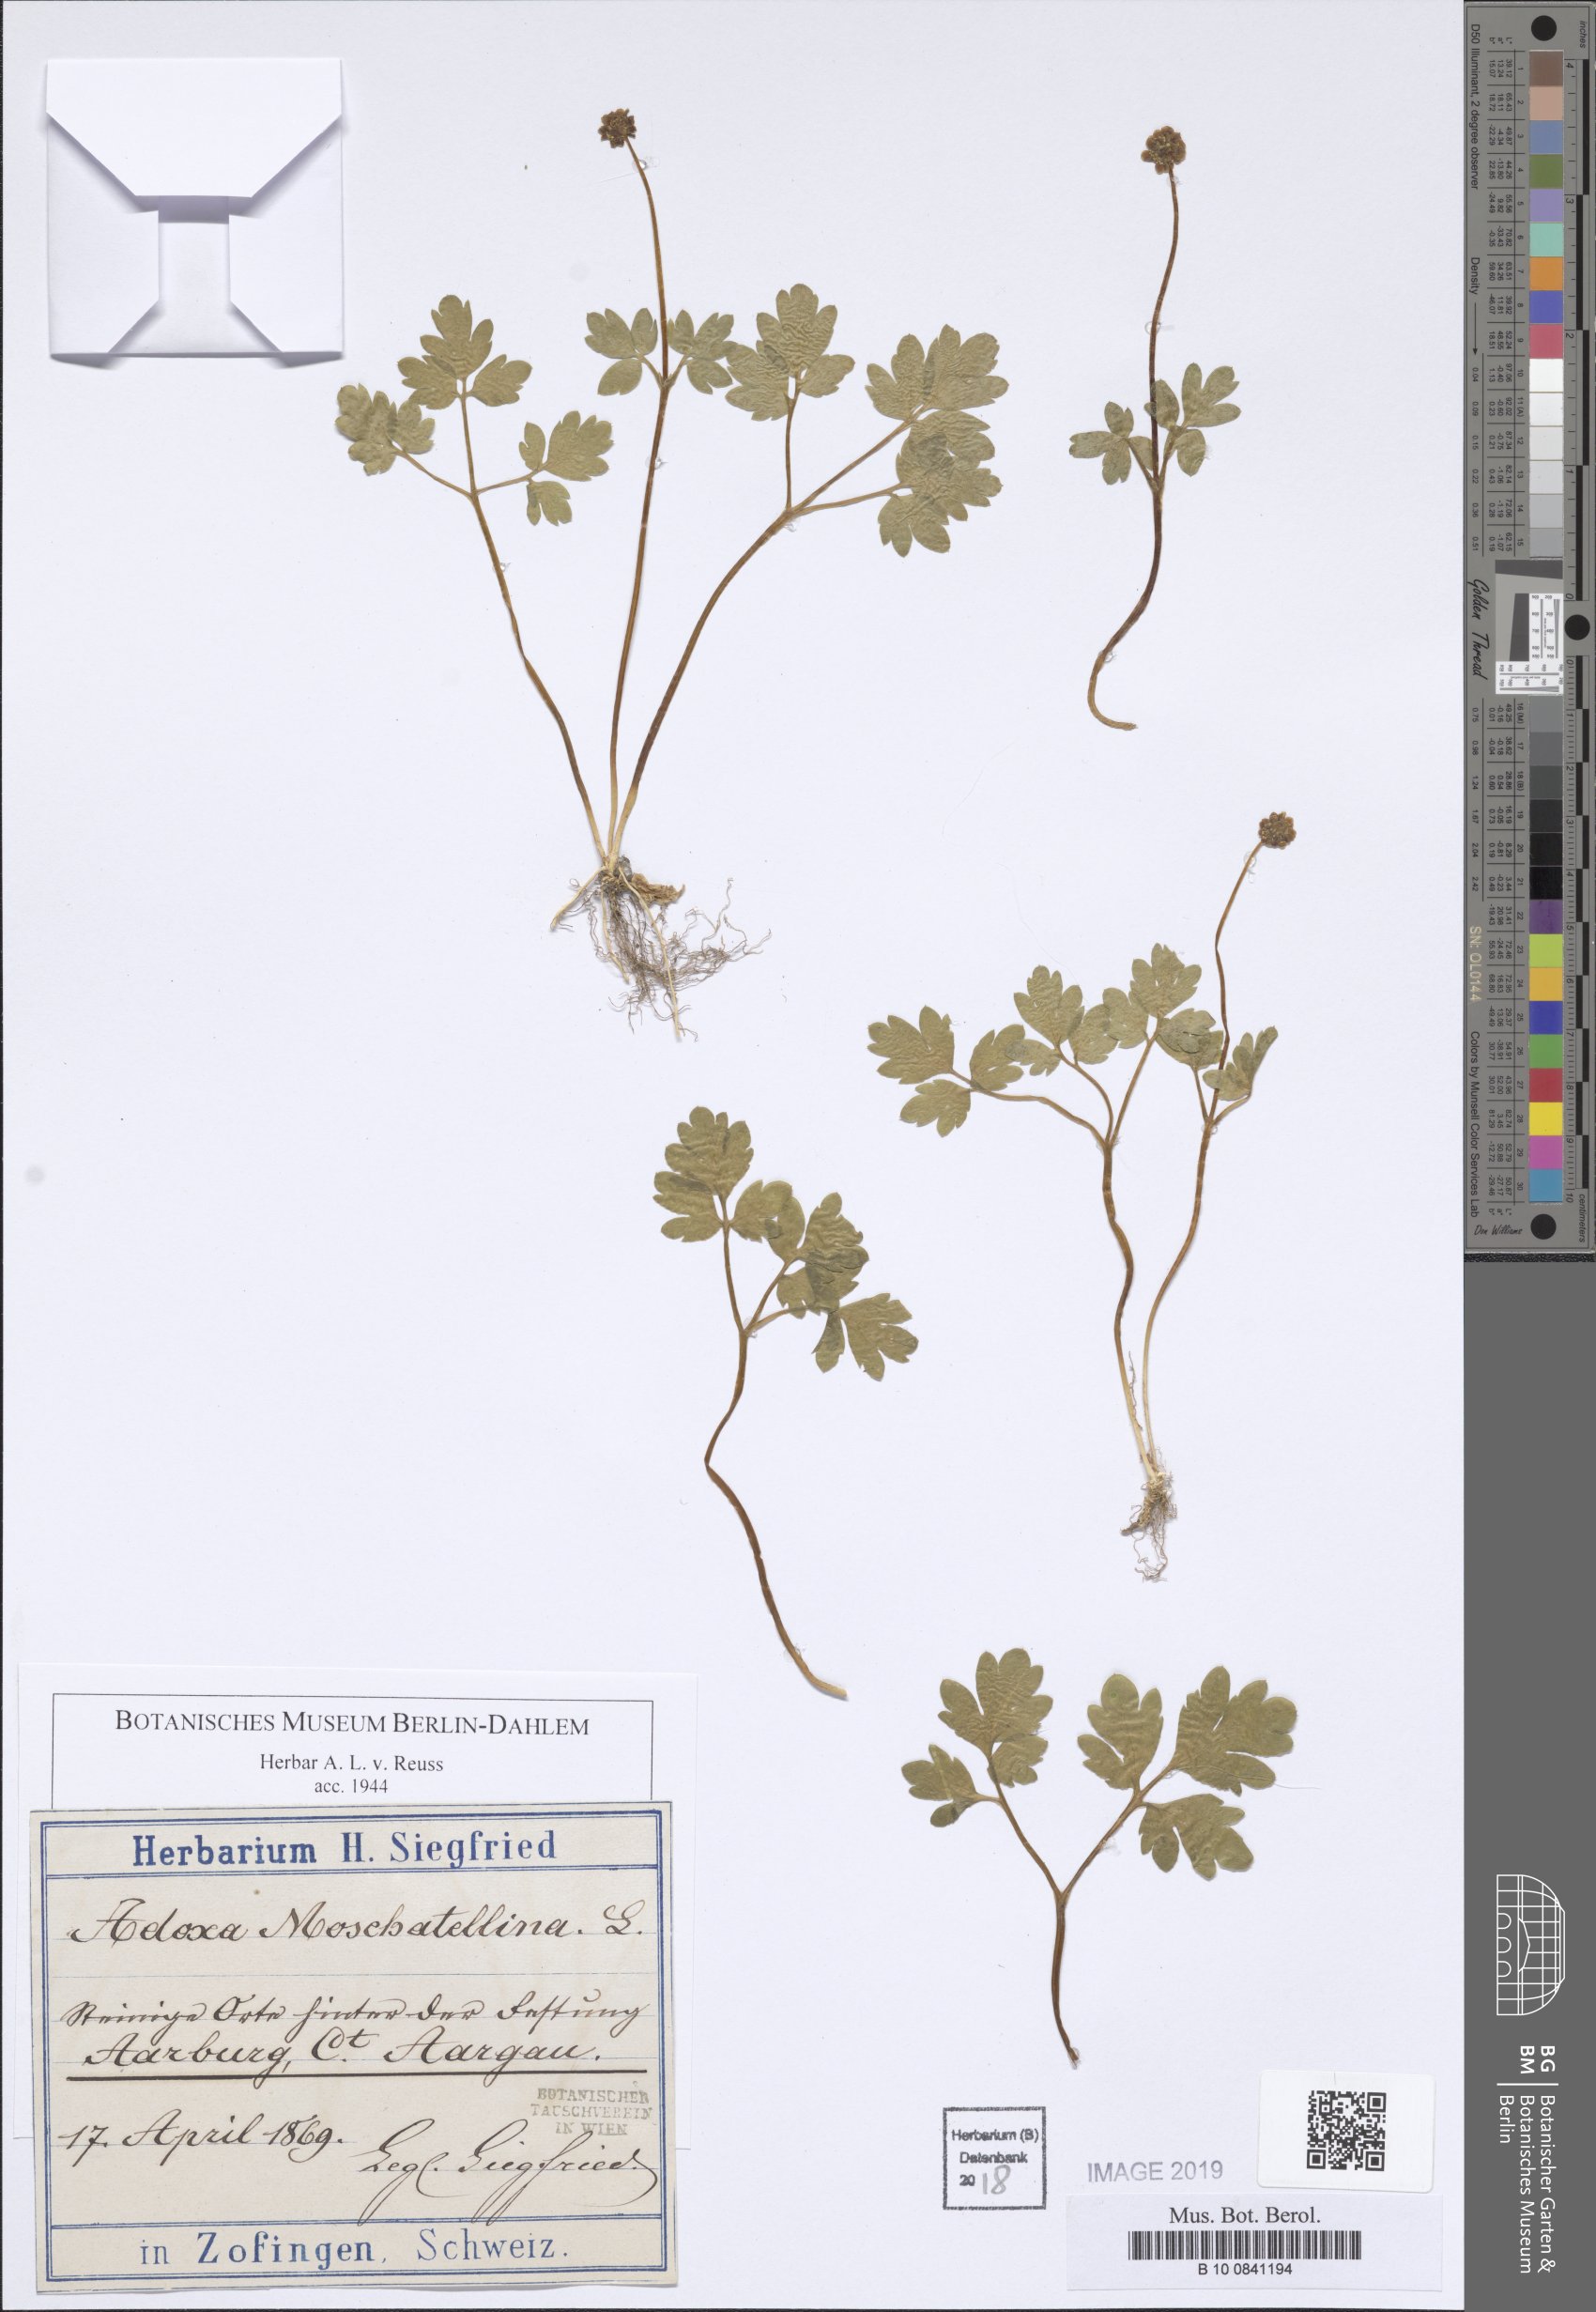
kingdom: Plantae
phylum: Tracheophyta
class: Magnoliopsida
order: Dipsacales
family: Viburnaceae
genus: Adoxa
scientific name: Adoxa moschatellina
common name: Moschatel
